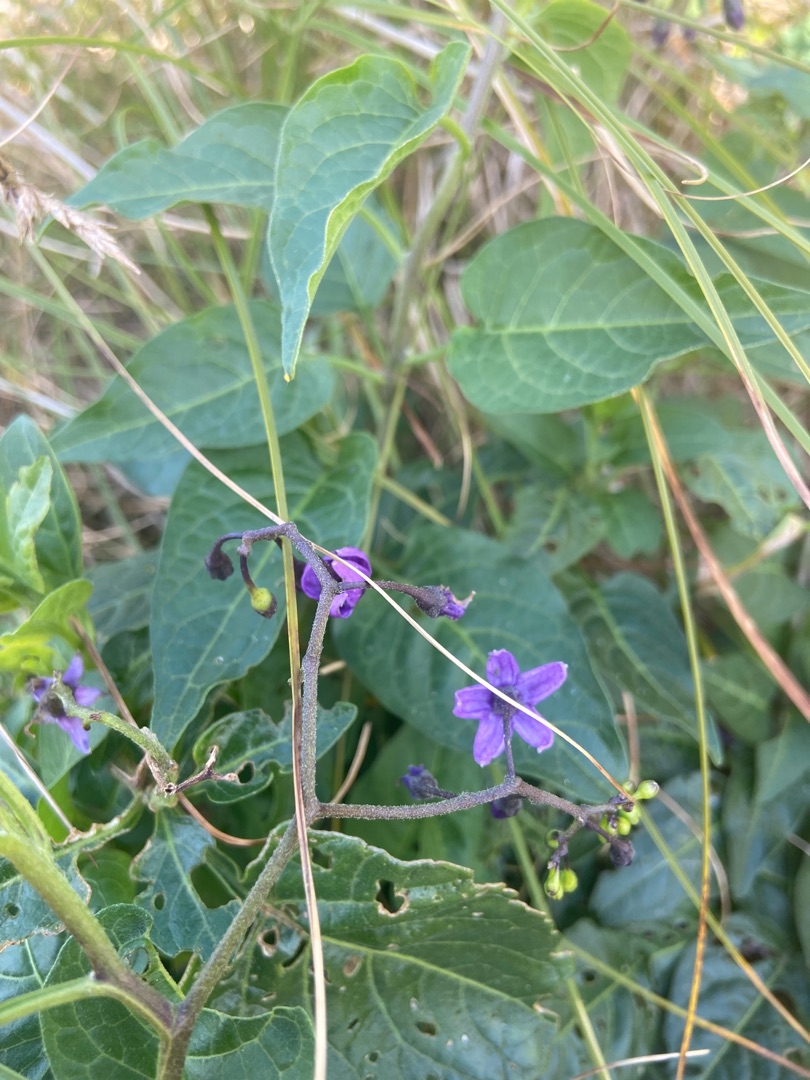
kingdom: Plantae
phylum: Tracheophyta
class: Magnoliopsida
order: Solanales
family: Solanaceae
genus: Solanum
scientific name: Solanum dulcamara
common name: Bittersød natskygge
